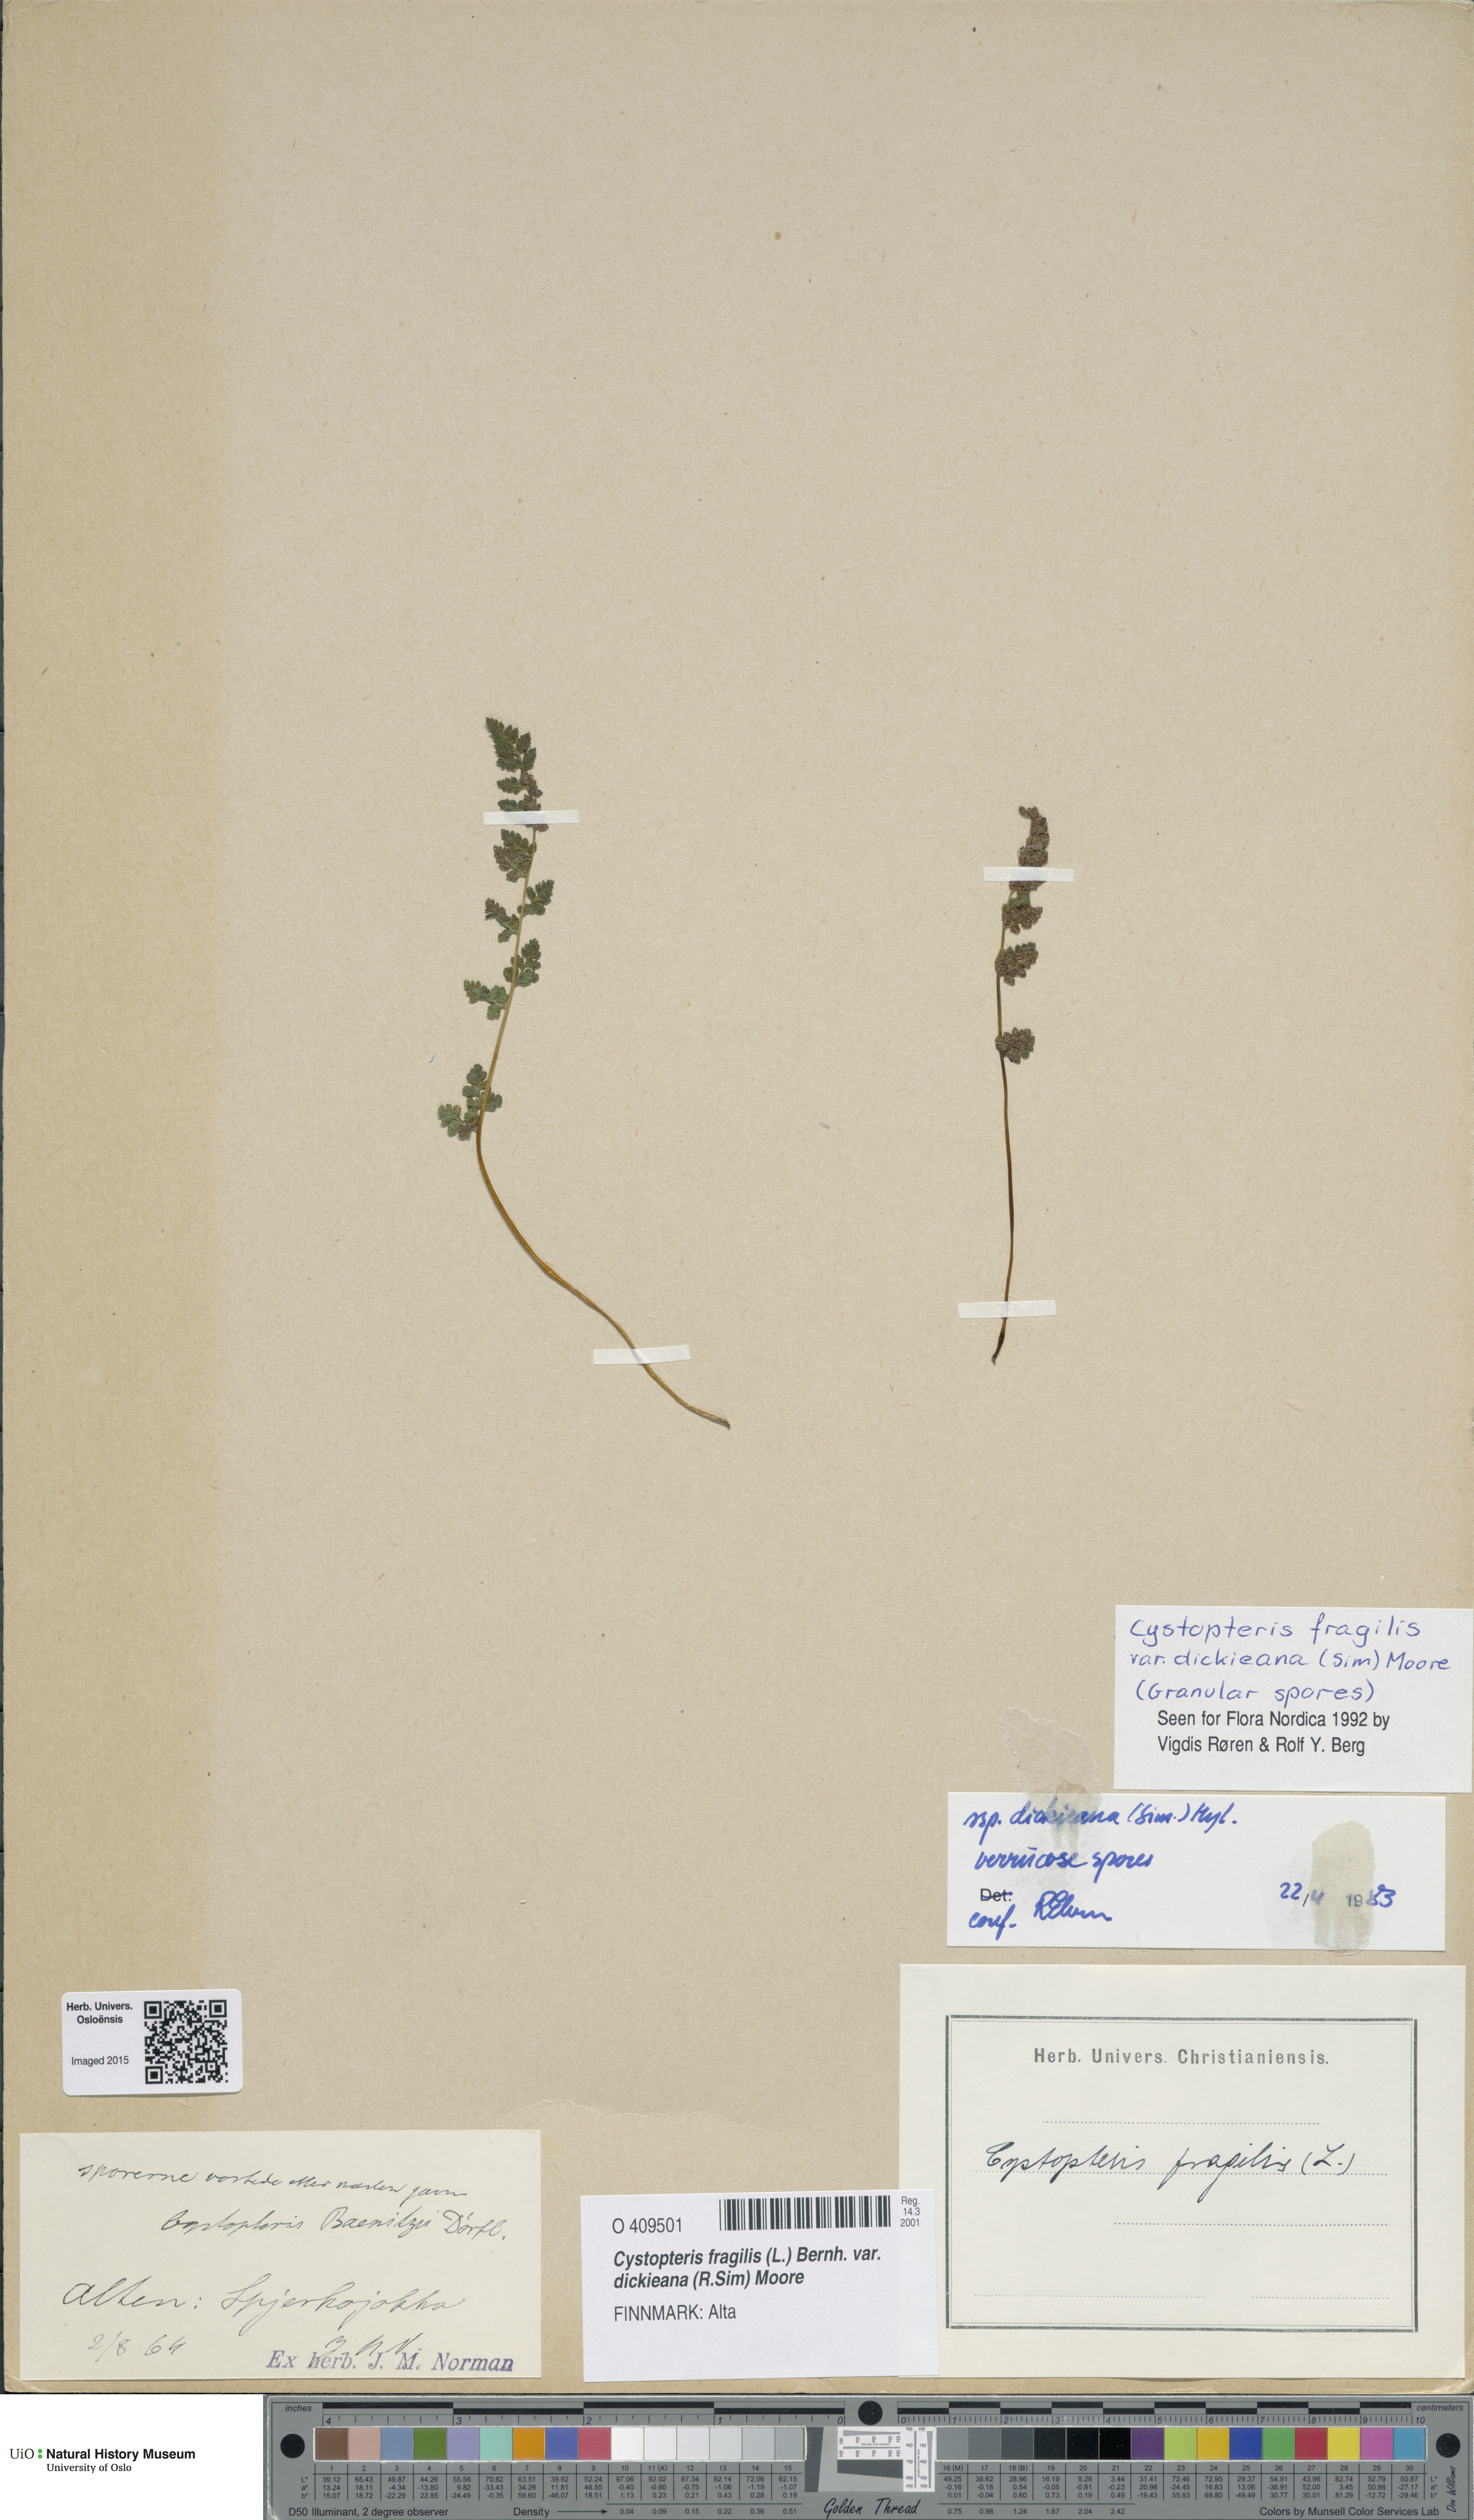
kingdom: Plantae
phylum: Tracheophyta
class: Polypodiopsida
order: Polypodiales
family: Cystopteridaceae
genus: Cystopteris
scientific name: Cystopteris dickieana
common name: Dickie's bladder-fern
